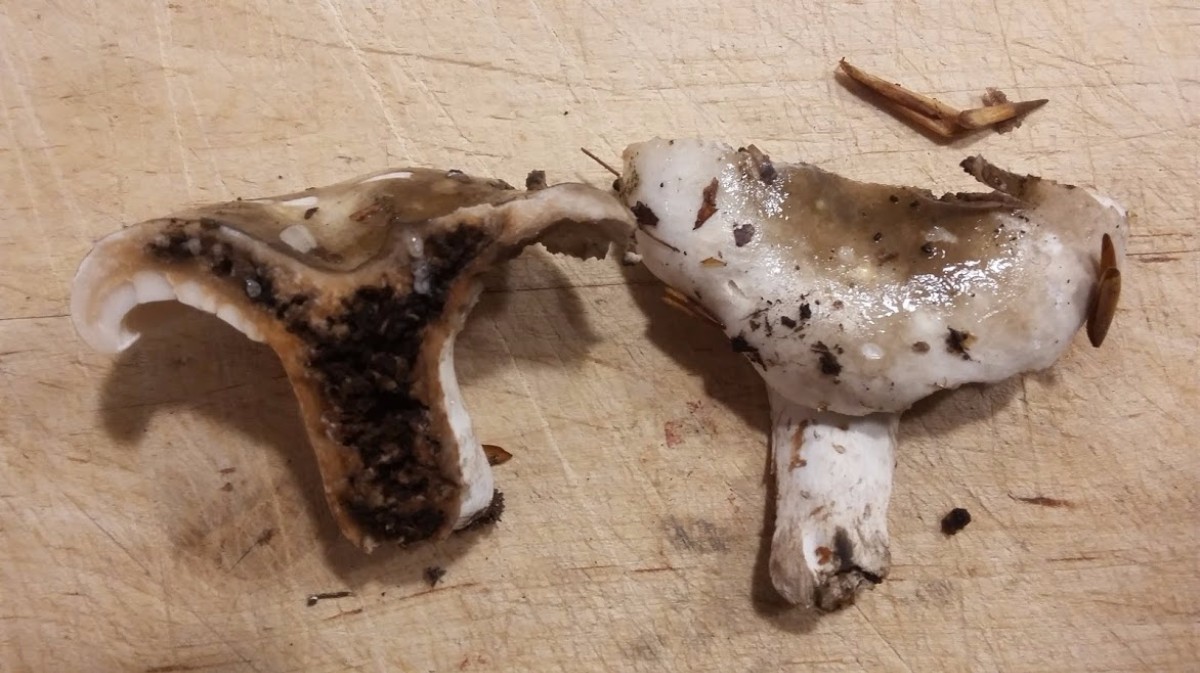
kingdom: Fungi
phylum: Basidiomycota
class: Agaricomycetes
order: Russulales
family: Russulaceae
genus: Russula
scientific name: Russula
